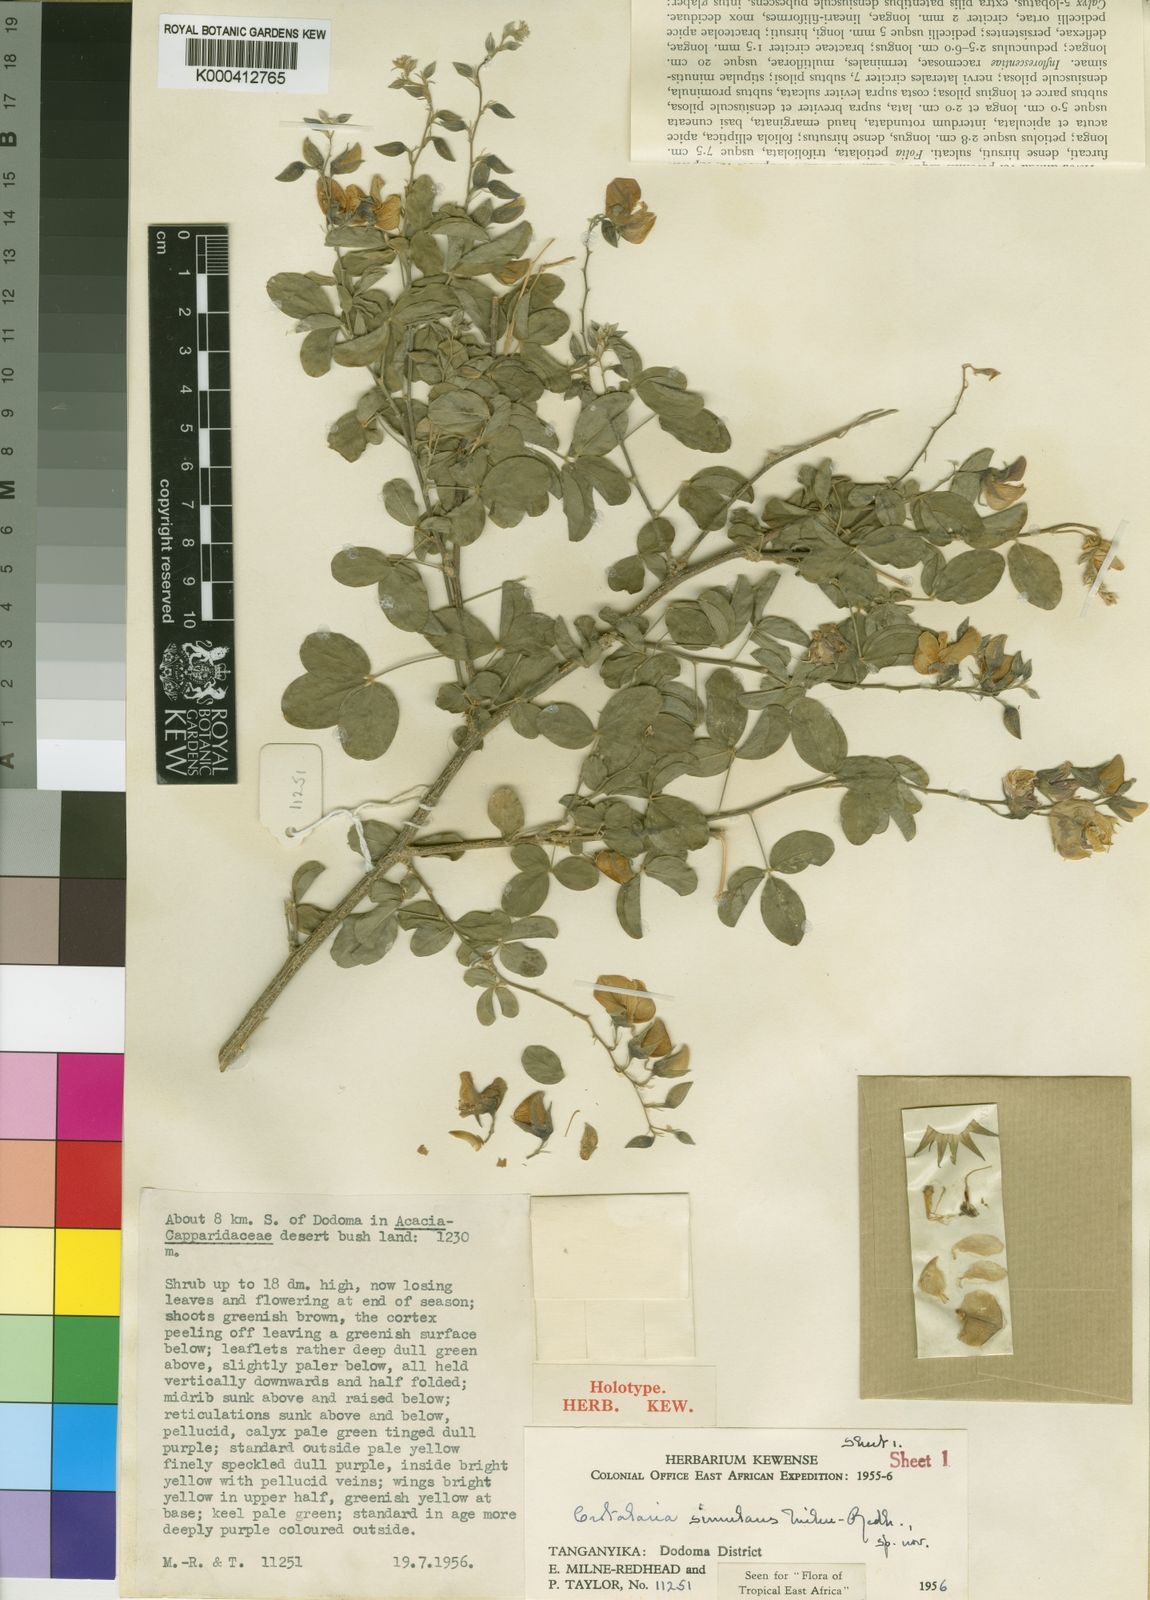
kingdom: Plantae
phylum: Tracheophyta
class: Magnoliopsida
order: Fabales
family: Fabaceae
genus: Crotalaria
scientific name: Crotalaria simulans
